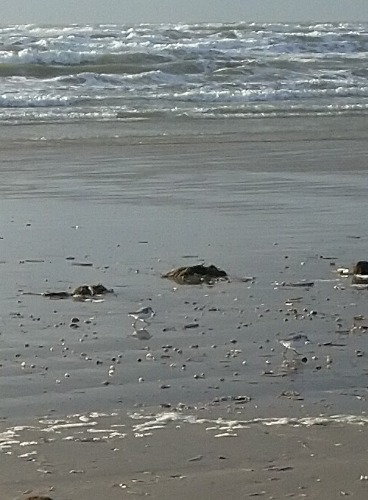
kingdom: Animalia
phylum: Chordata
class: Aves
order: Charadriiformes
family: Scolopacidae
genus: Calidris
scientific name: Calidris alba
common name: Sandløber
